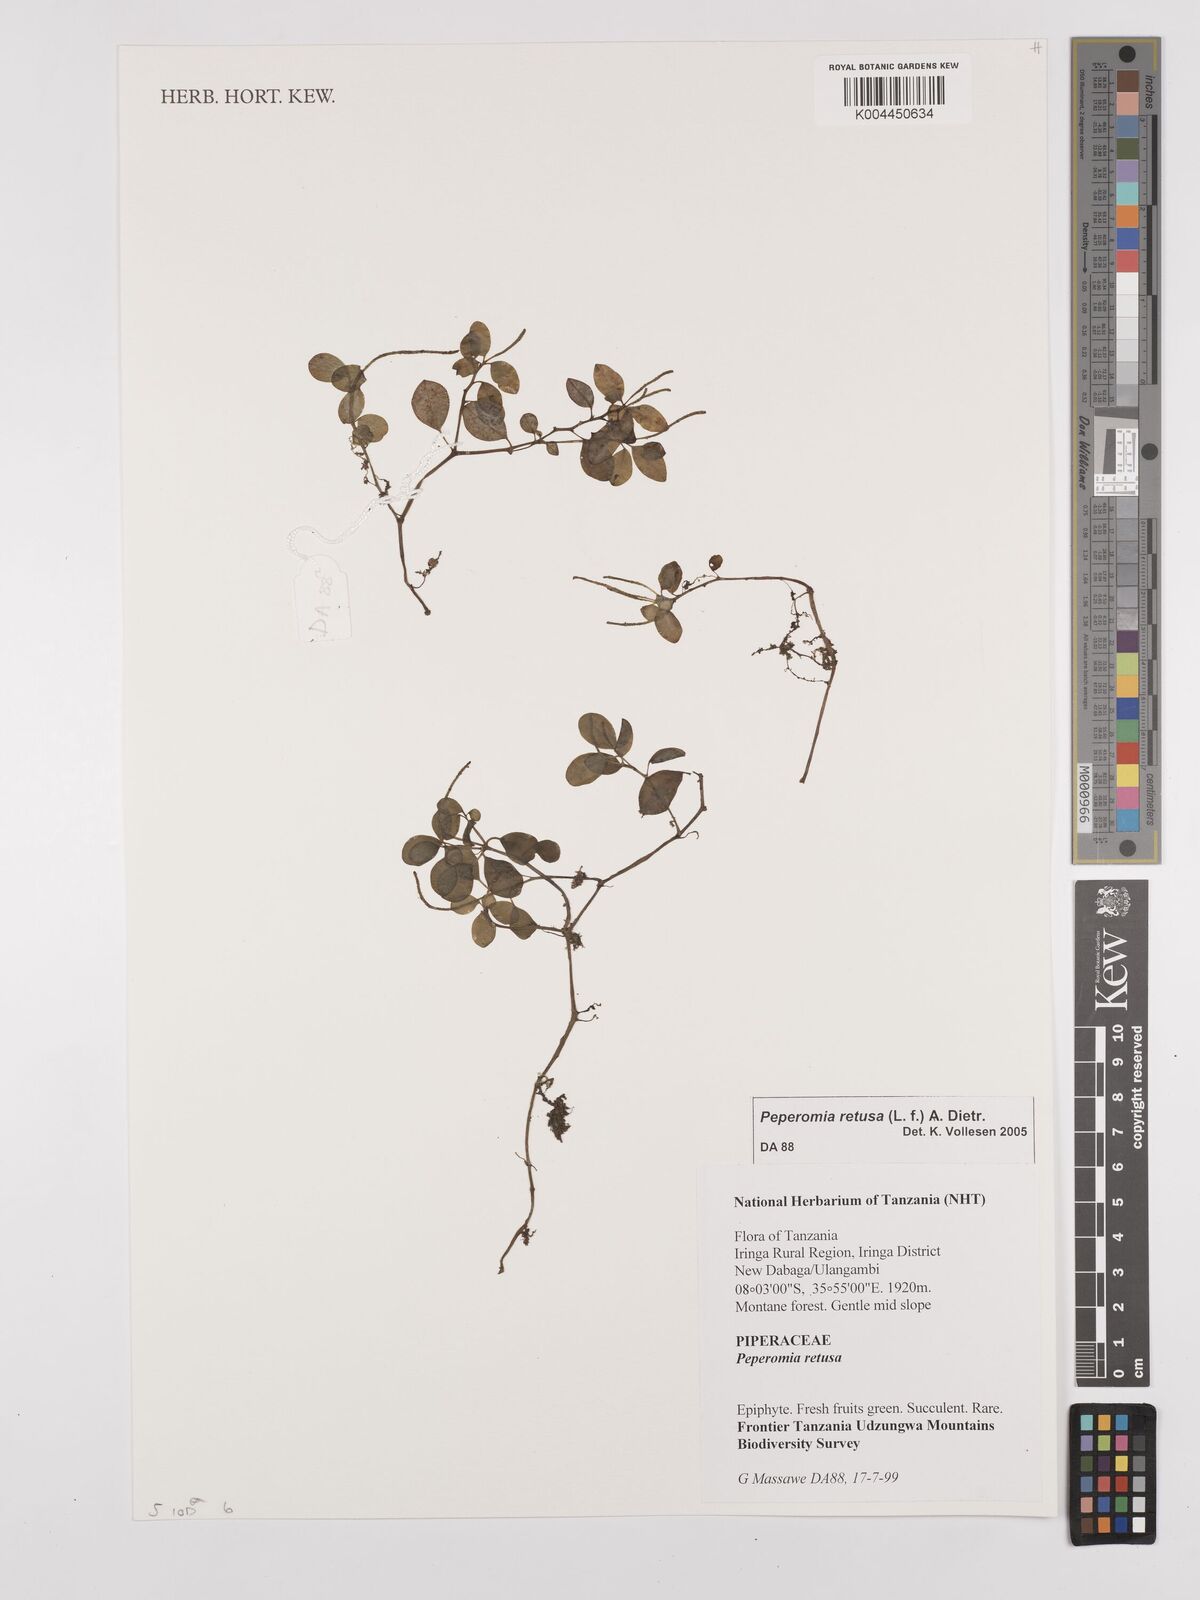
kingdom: Plantae
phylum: Tracheophyta
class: Magnoliopsida
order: Piperales
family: Piperaceae
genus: Peperomia
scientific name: Peperomia retusa
